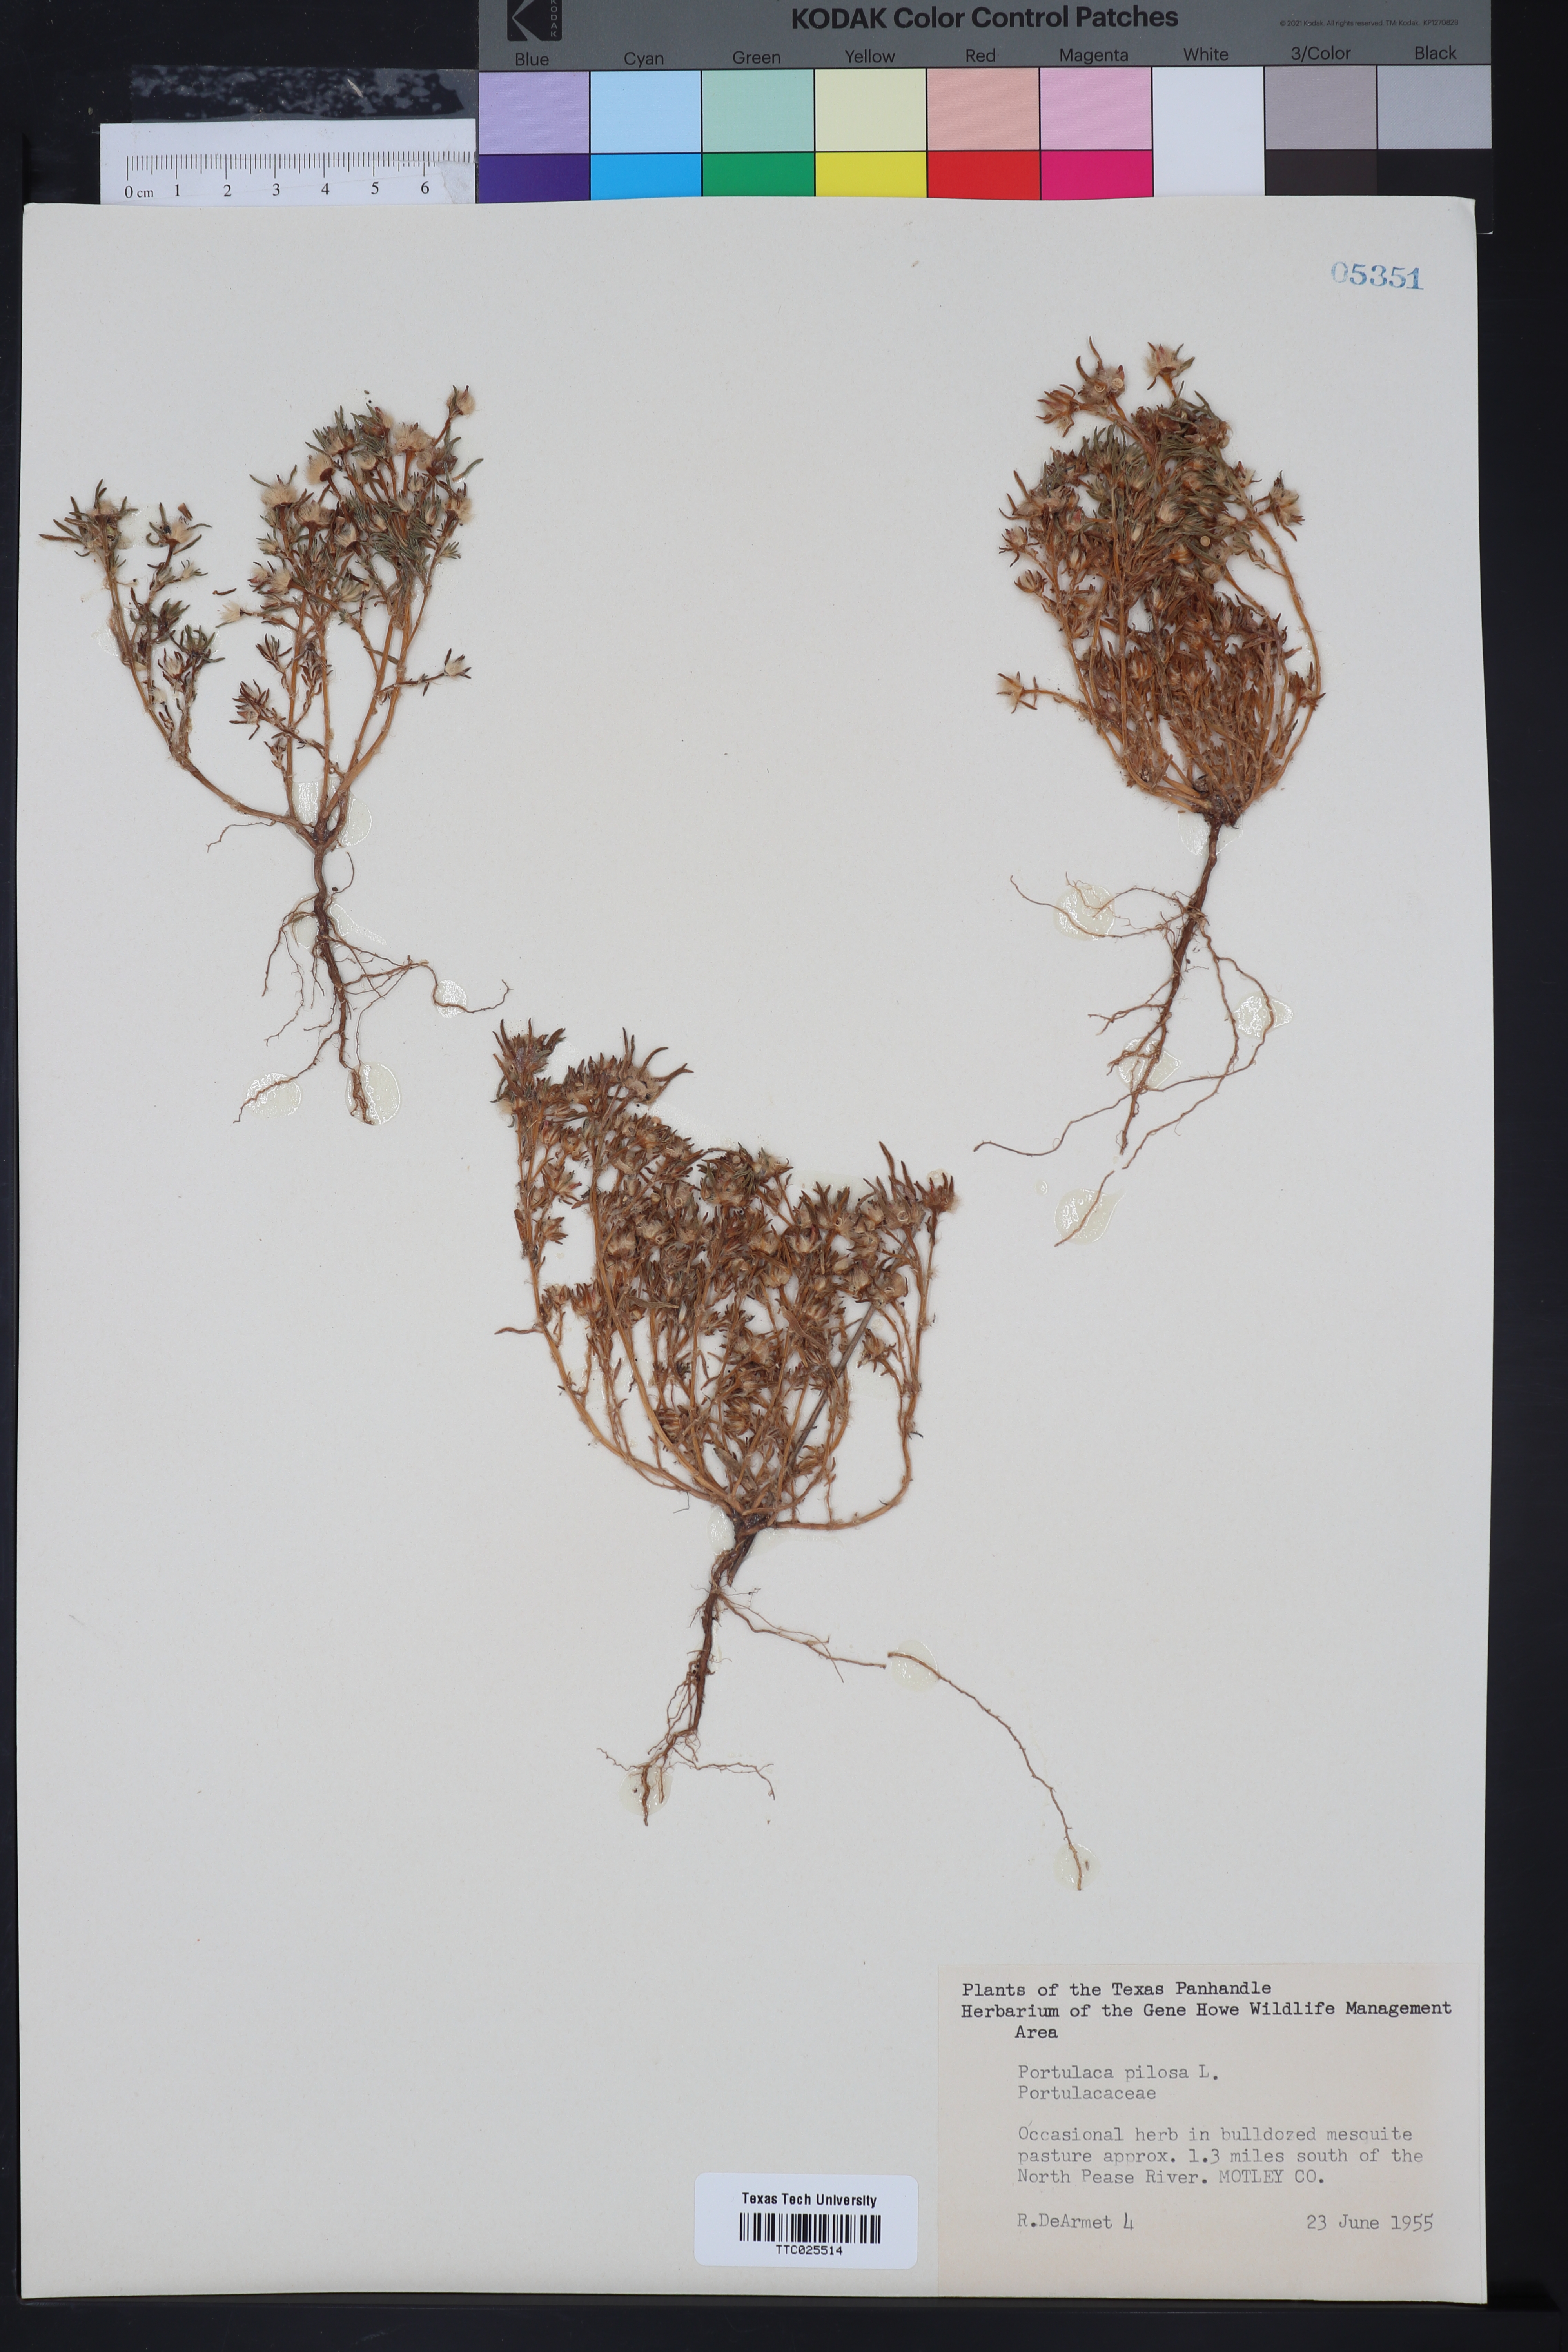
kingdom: Plantae
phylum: Tracheophyta
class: Magnoliopsida
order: Caryophyllales
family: Portulacaceae
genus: Portulaca
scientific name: Portulaca pilosa
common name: Kiss me quick
